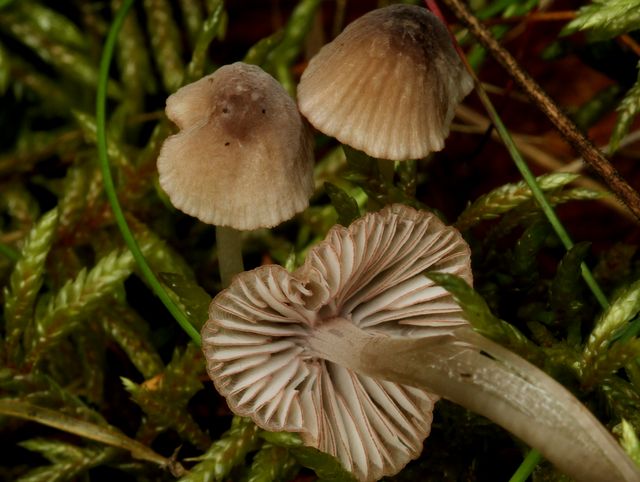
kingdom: Fungi
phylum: Basidiomycota
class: Agaricomycetes
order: Agaricales
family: Mycenaceae
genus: Mycena
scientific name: Mycena rubromarginata
